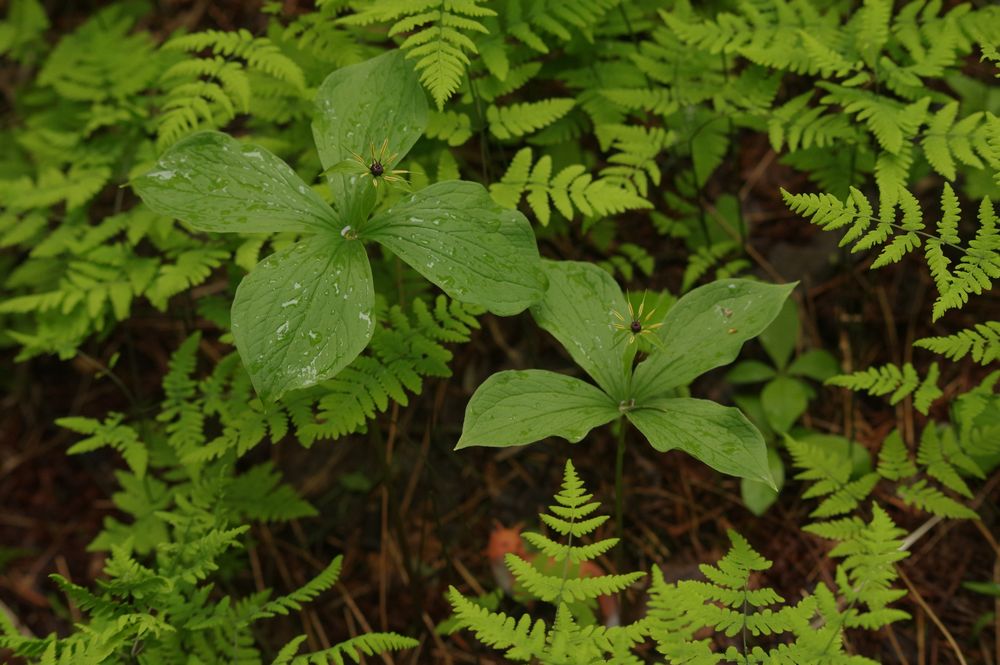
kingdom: Plantae
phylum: Tracheophyta
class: Liliopsida
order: Liliales
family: Melanthiaceae
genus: Paris
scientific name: Paris quadrifolia
